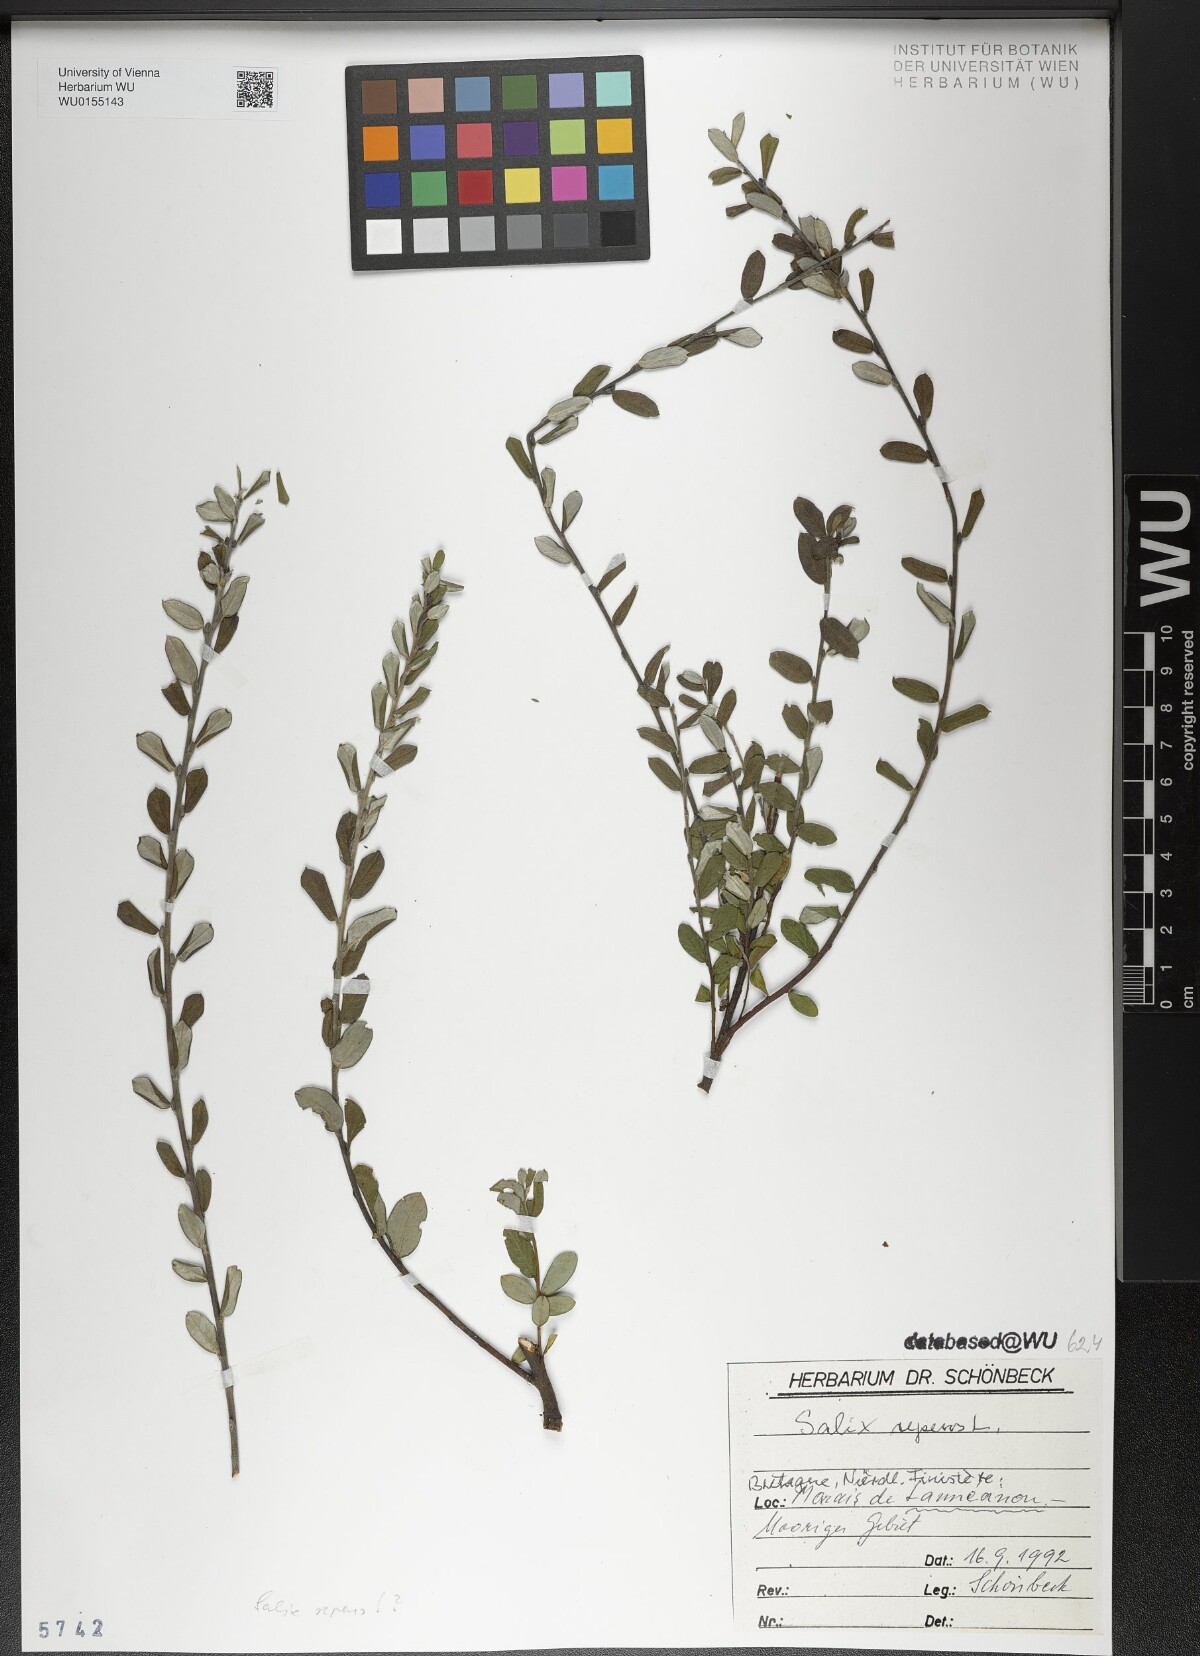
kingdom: Plantae
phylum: Tracheophyta
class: Magnoliopsida
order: Malpighiales
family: Salicaceae
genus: Salix
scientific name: Salix repens
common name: Creeping willow
